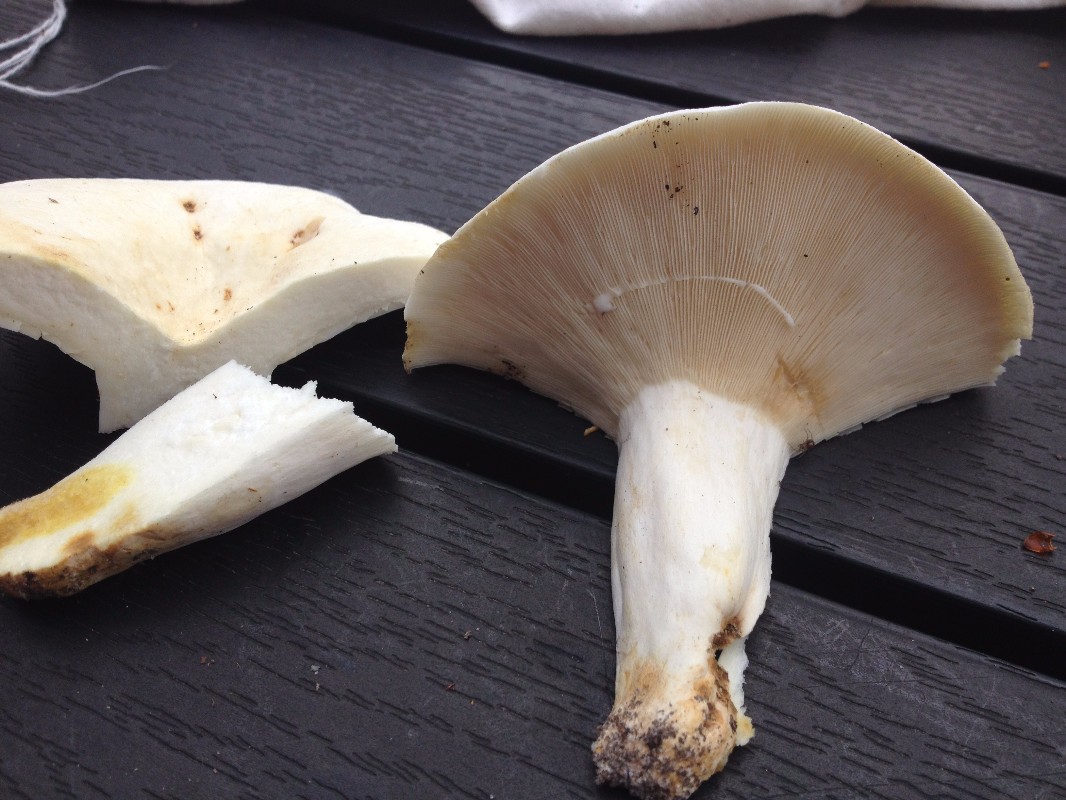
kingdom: Fungi
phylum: Basidiomycota
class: Agaricomycetes
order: Russulales
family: Russulaceae
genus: Lactifluus
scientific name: Lactifluus piperatus
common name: peber-mælkehat
